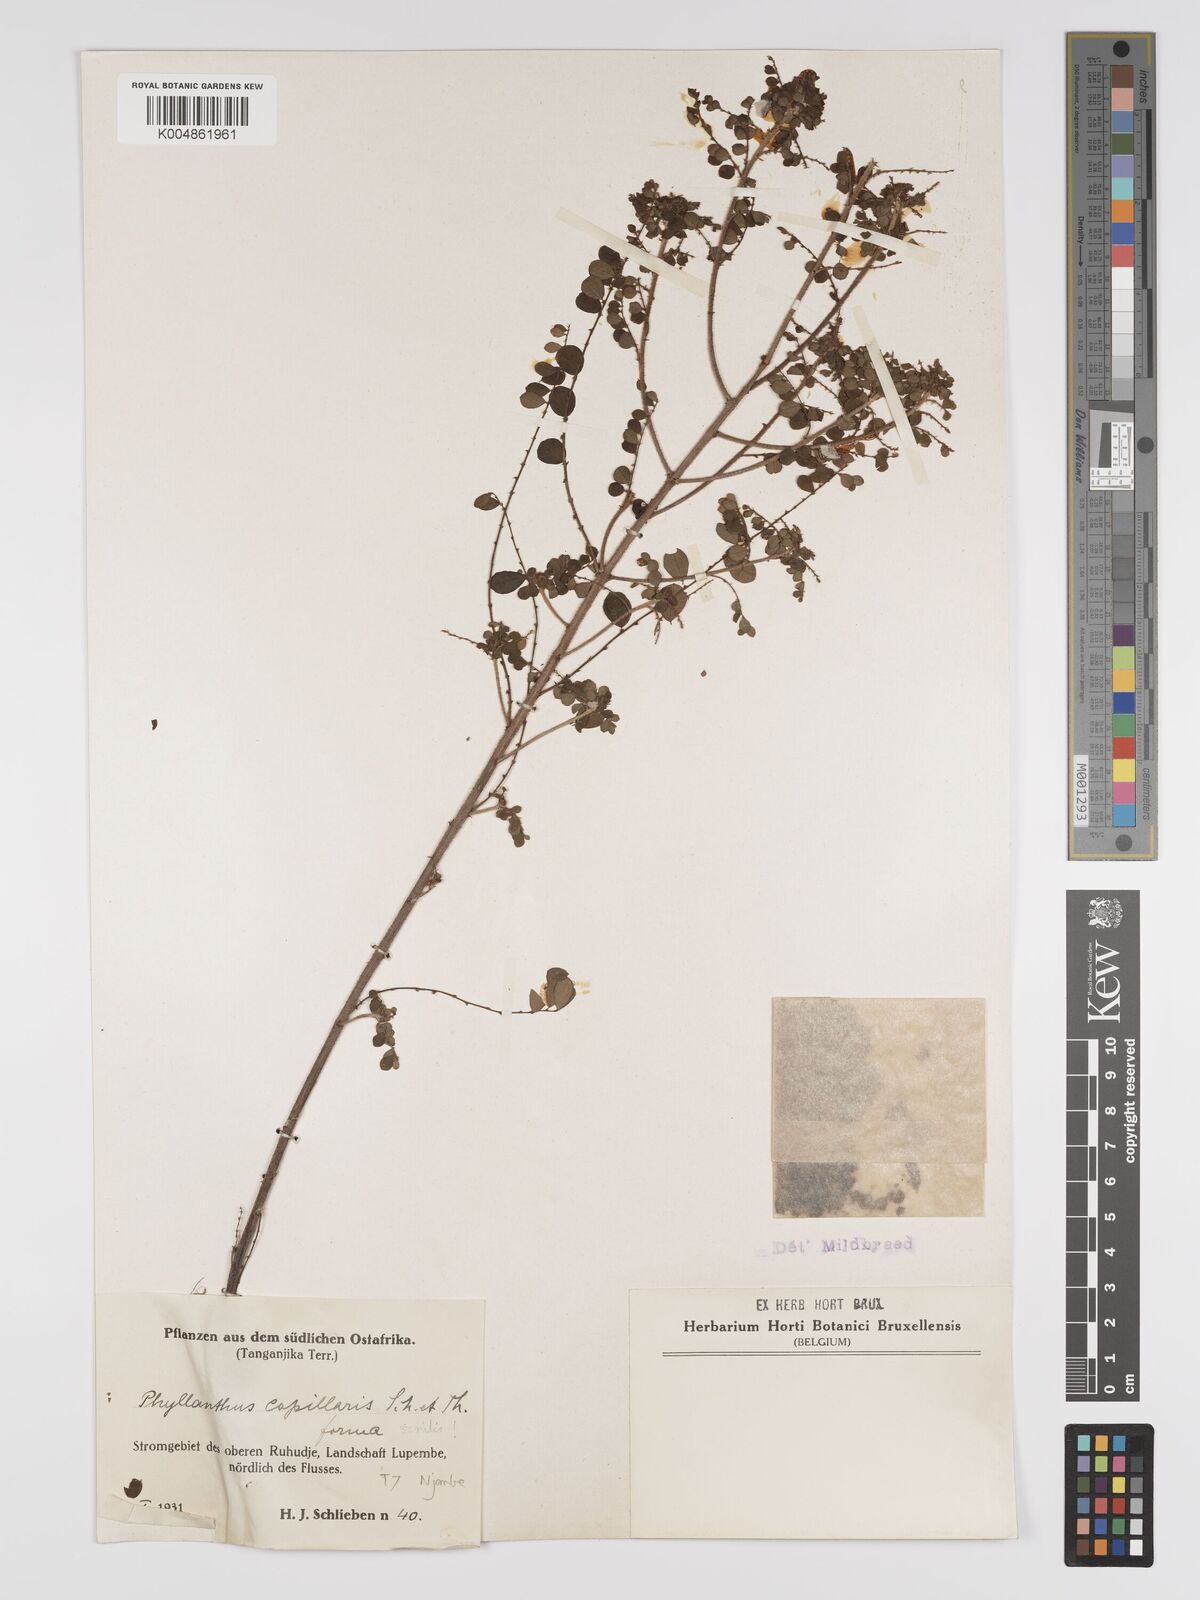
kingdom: Plantae
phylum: Tracheophyta
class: Magnoliopsida
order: Malpighiales
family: Phyllanthaceae
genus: Phyllanthus
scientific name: Phyllanthus nummulariifolius
